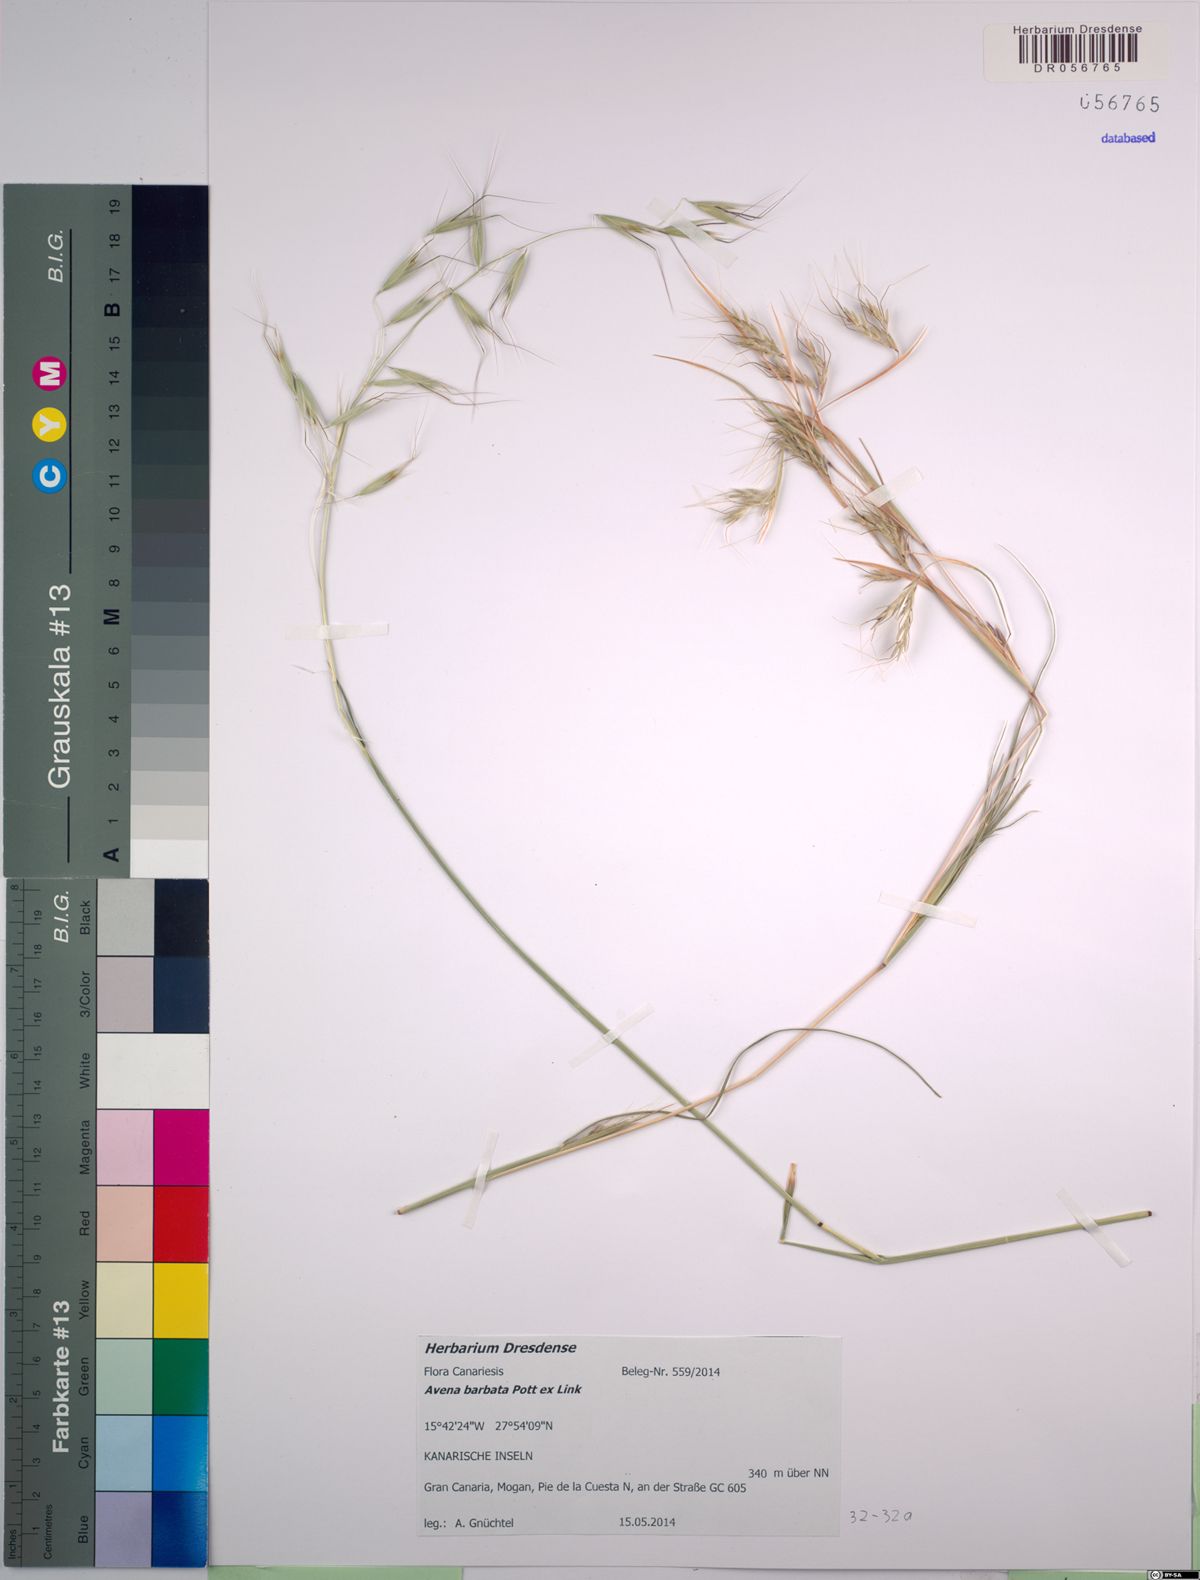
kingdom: Plantae
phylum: Tracheophyta
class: Liliopsida
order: Poales
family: Poaceae
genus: Avena
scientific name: Avena barbata
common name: Slender oat
